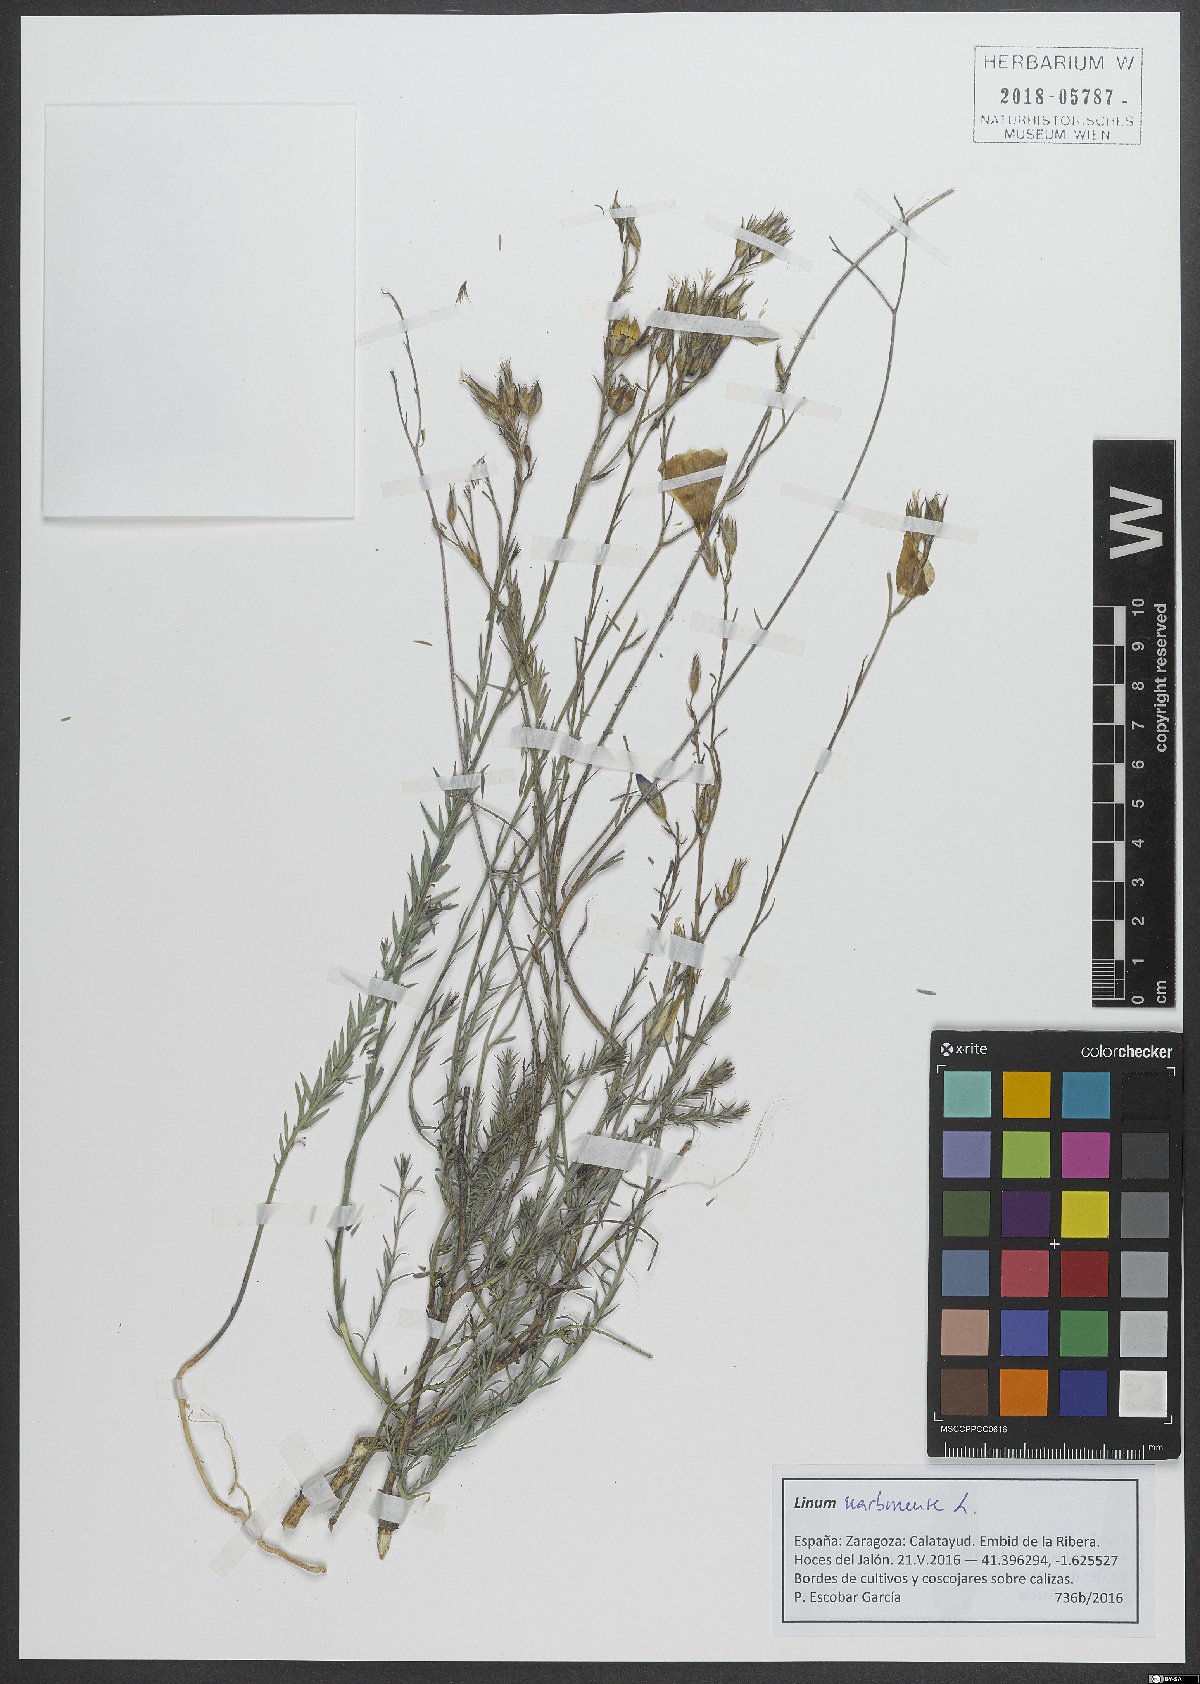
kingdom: Plantae
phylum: Tracheophyta
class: Magnoliopsida
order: Malpighiales
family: Linaceae
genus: Linum
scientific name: Linum narbonense
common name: Flax
